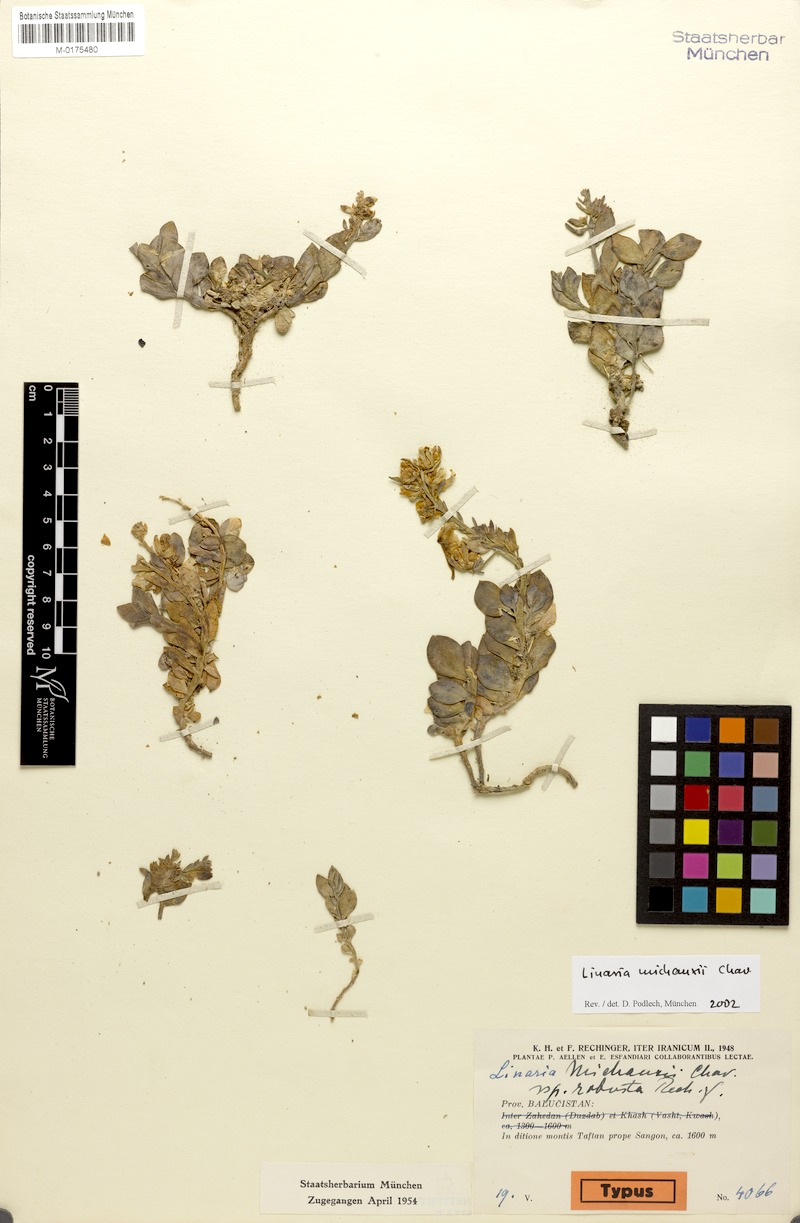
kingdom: Plantae
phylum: Tracheophyta
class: Magnoliopsida
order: Lamiales
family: Plantaginaceae
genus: Linaria
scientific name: Linaria michauxii
